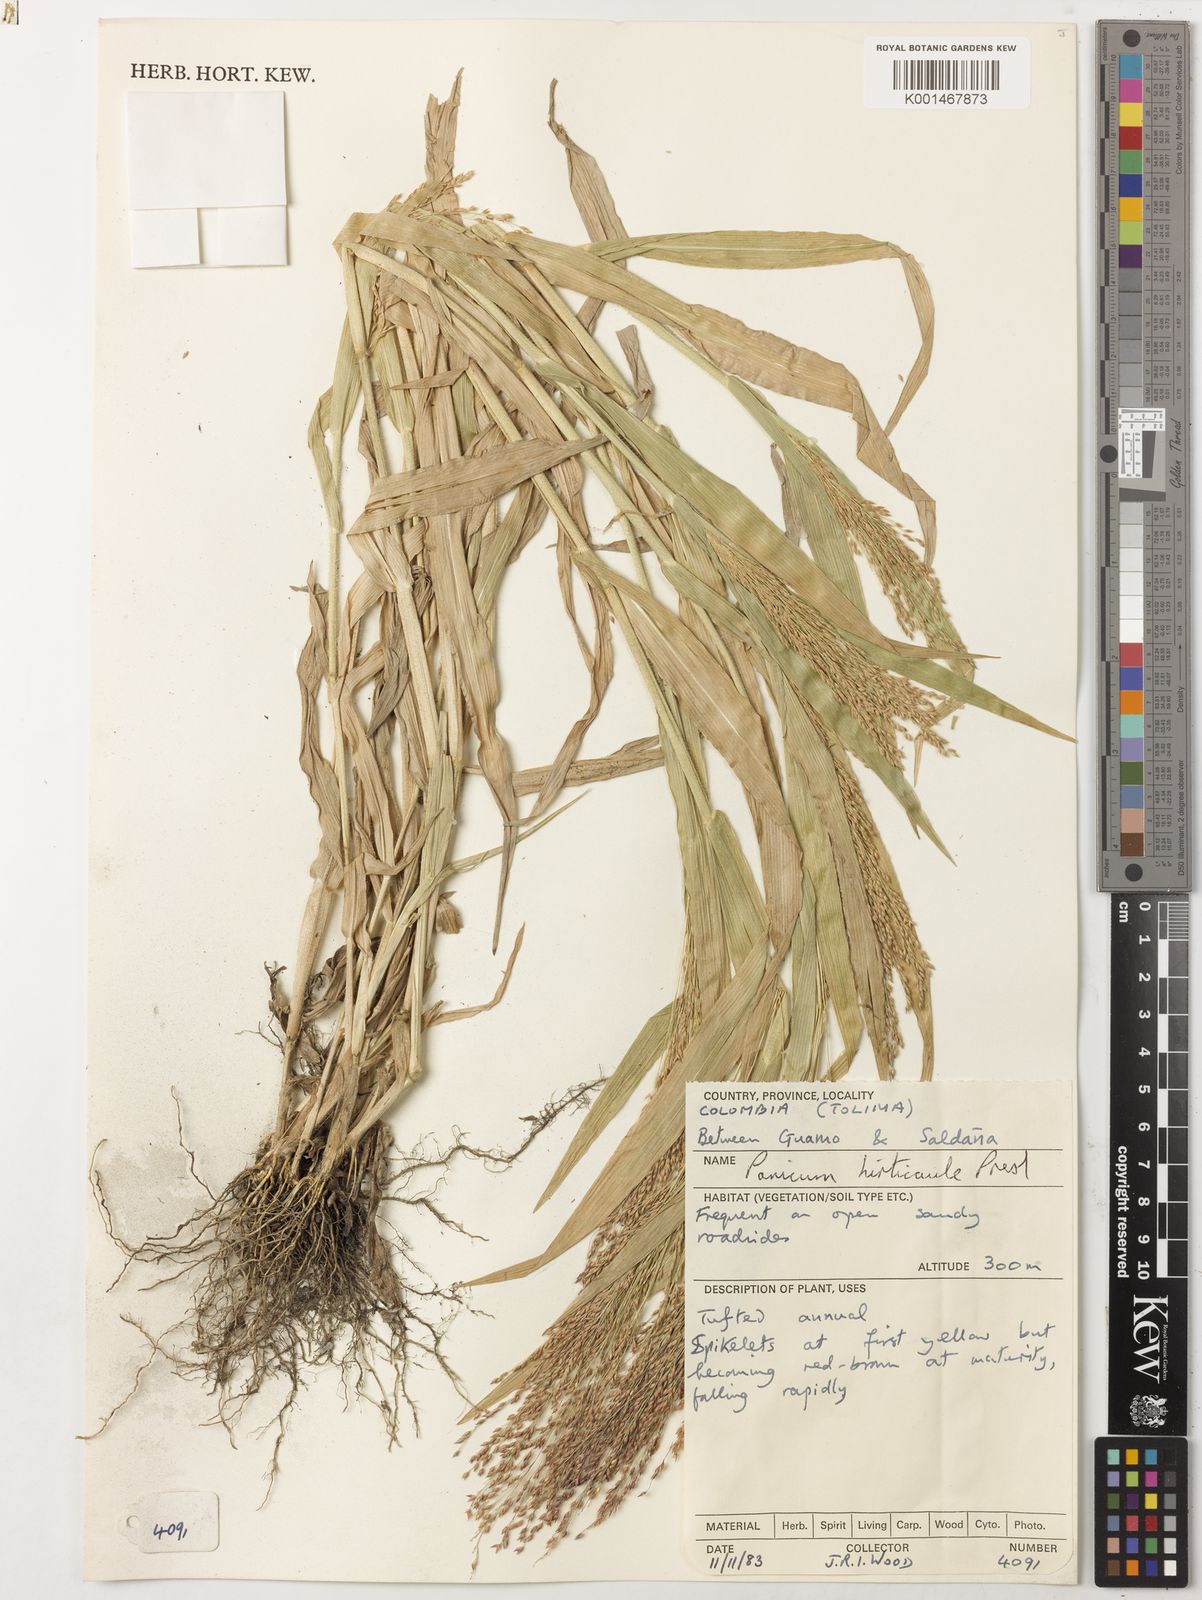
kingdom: Plantae
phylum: Tracheophyta
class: Liliopsida
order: Poales
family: Poaceae
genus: Panicum
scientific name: Panicum hirticaule
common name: Rough-stalk witchgrass
